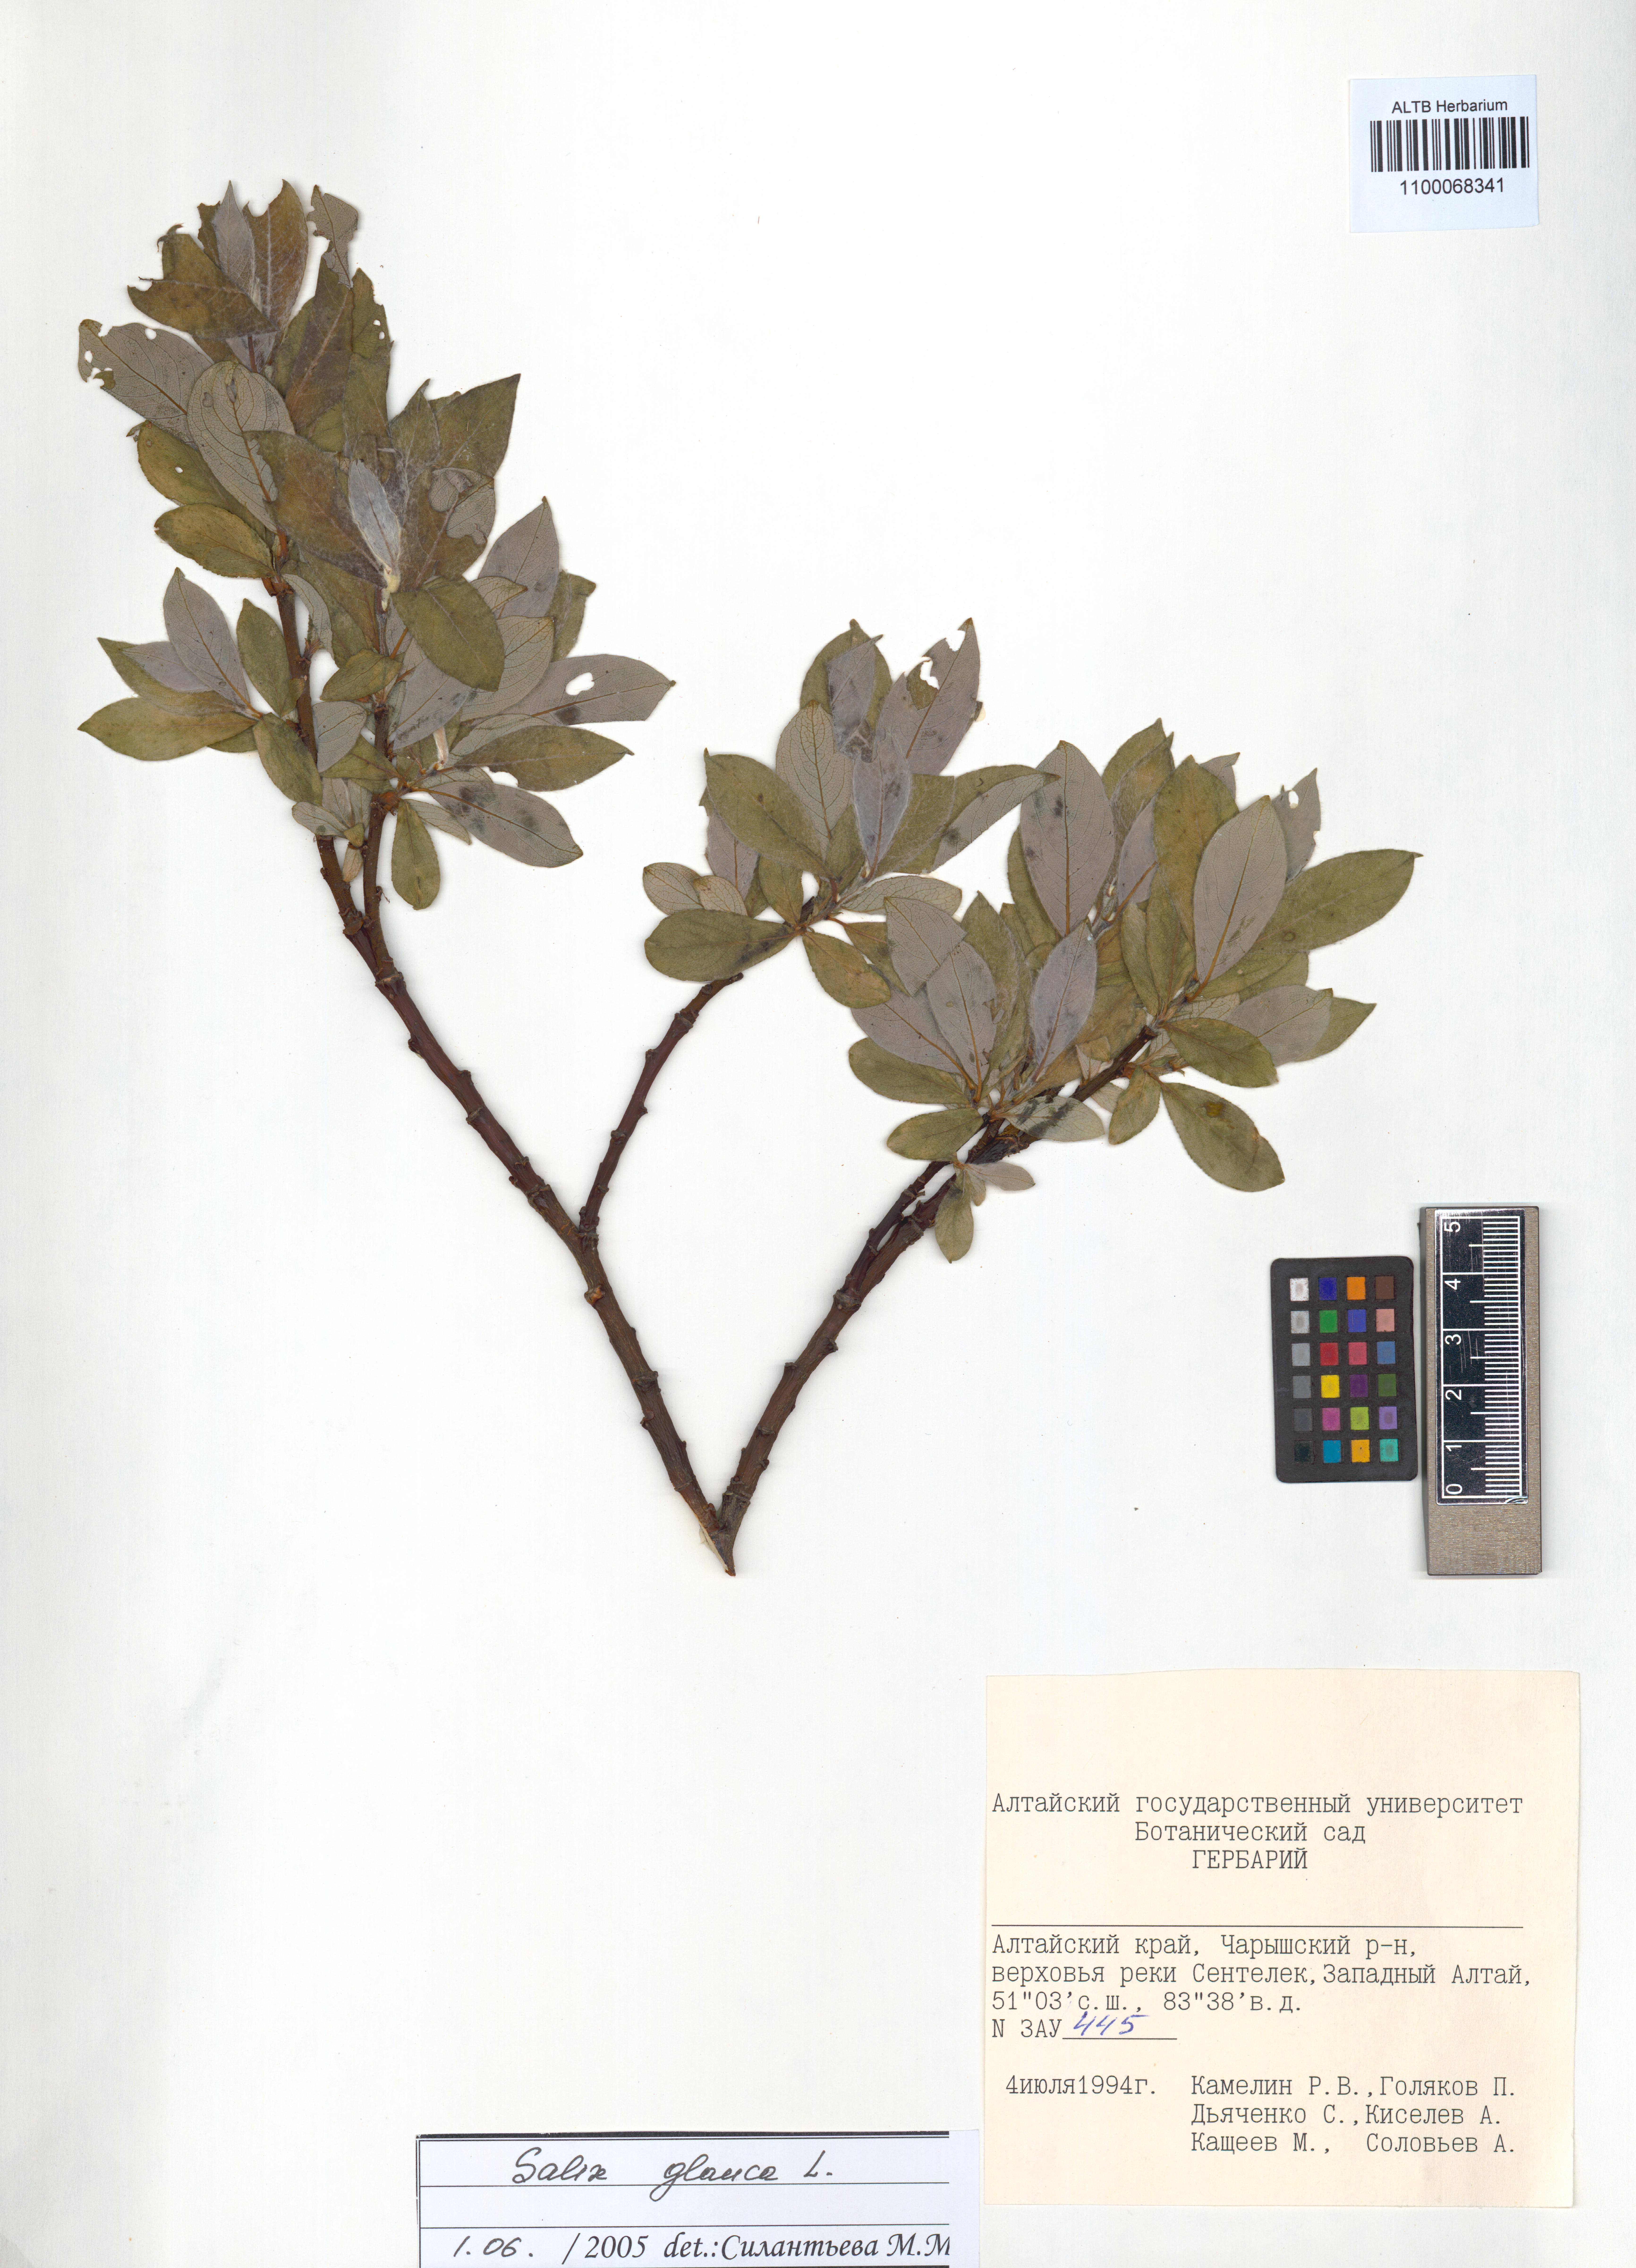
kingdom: Plantae
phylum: Tracheophyta
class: Magnoliopsida
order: Malpighiales
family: Salicaceae
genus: Salix
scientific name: Salix glauca
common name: Glaucous willow
